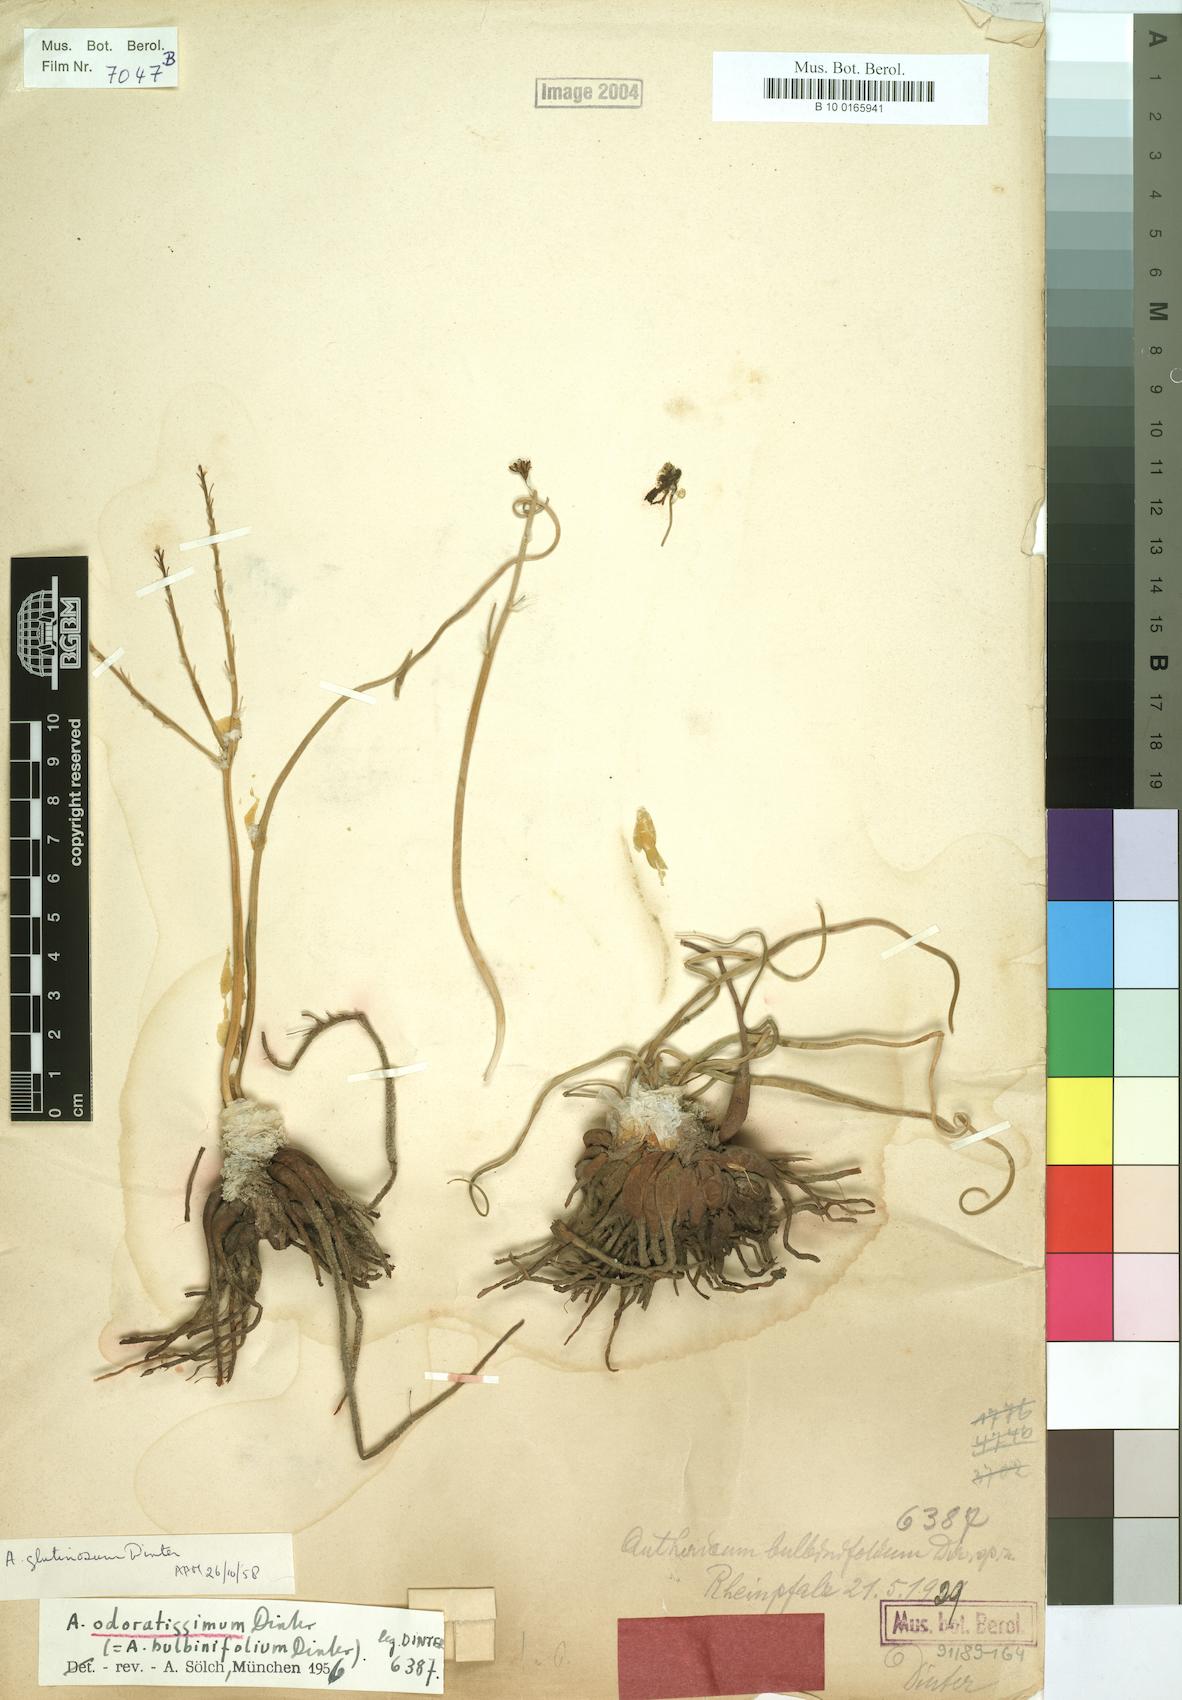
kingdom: Plantae
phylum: Tracheophyta
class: Liliopsida
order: Asparagales
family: Asphodelaceae
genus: Trachyandra
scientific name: Trachyandra laxa
